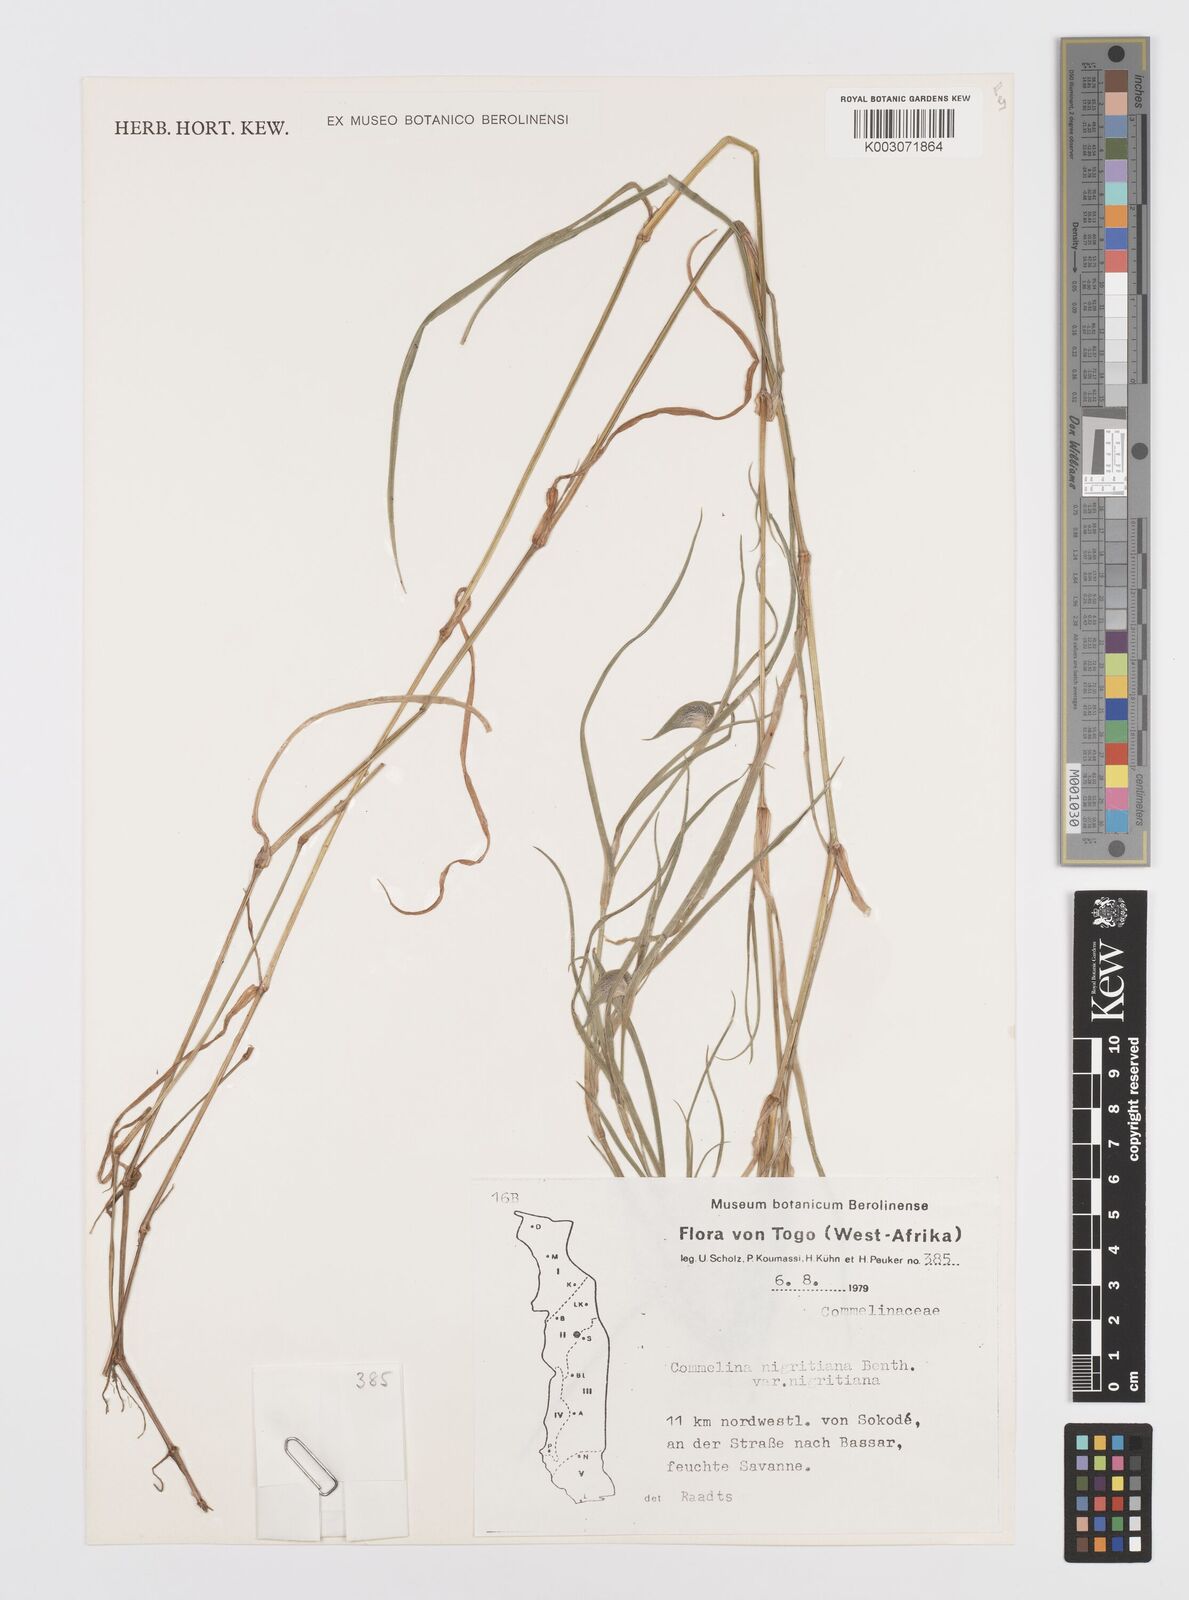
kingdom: Plantae
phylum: Tracheophyta
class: Liliopsida
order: Commelinales
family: Commelinaceae
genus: Commelina
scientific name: Commelina
